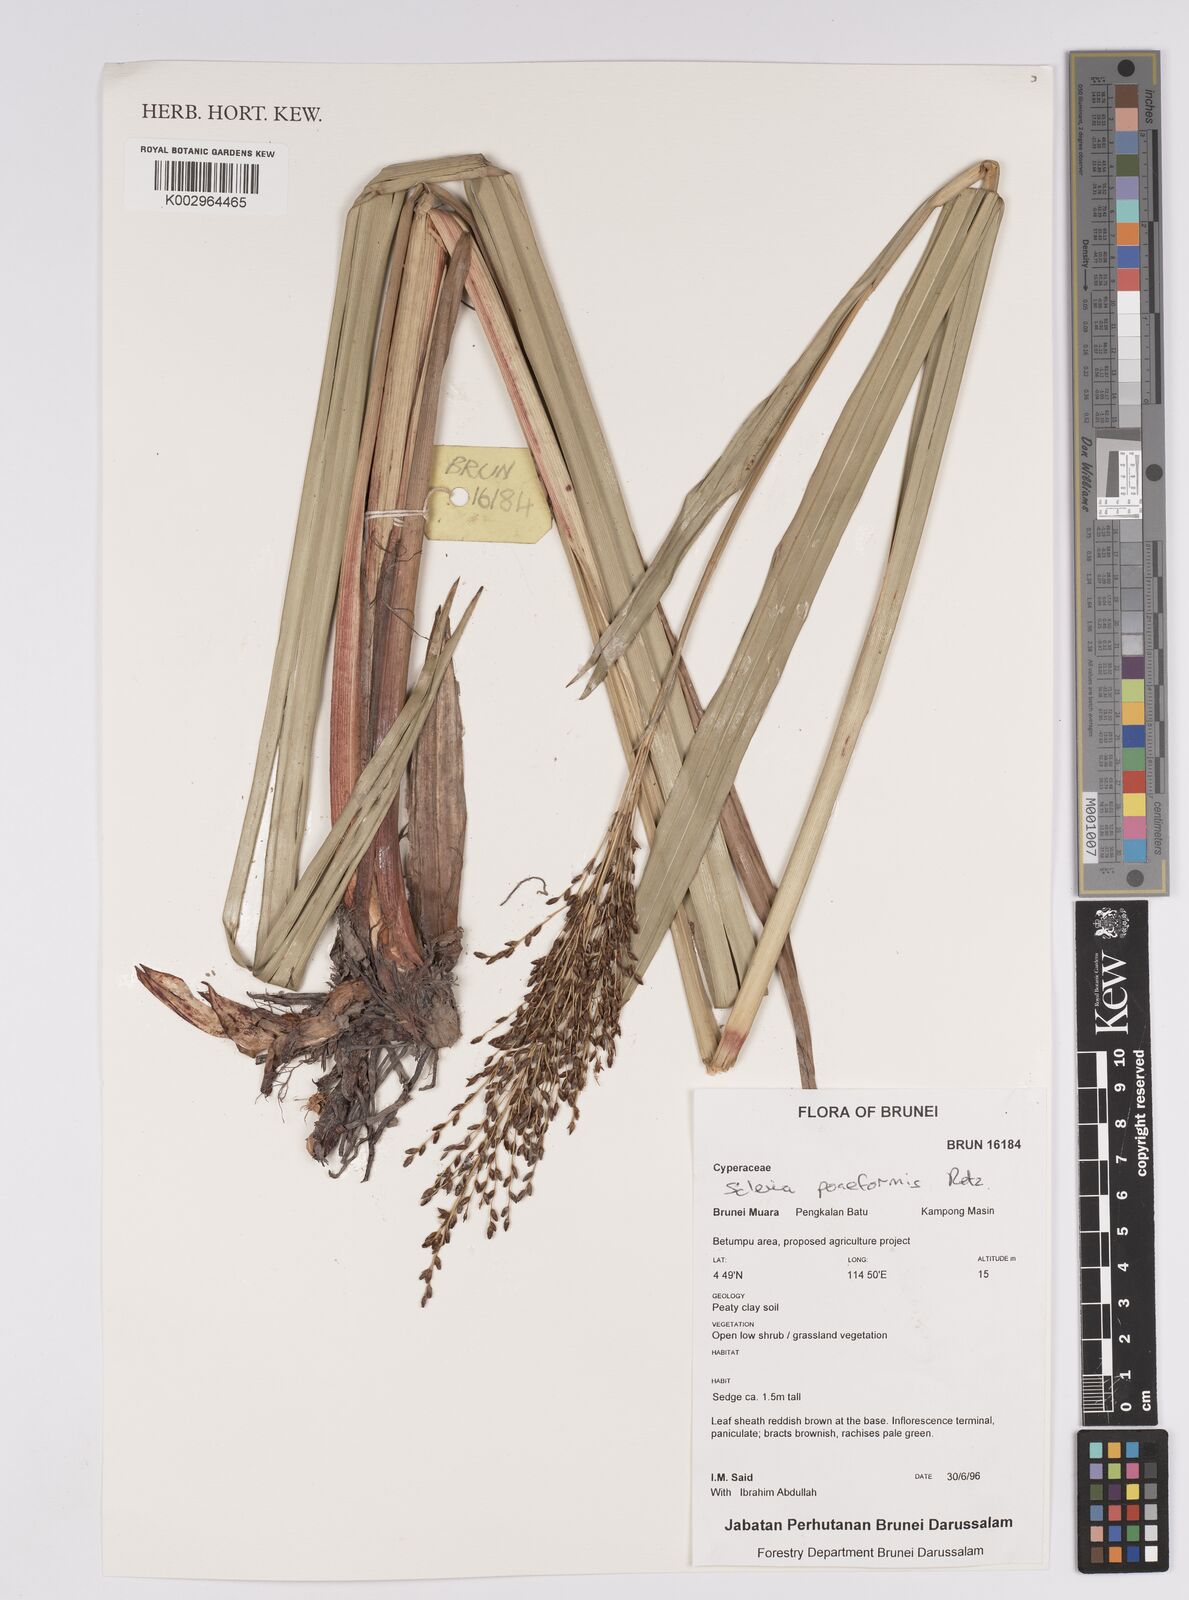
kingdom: Plantae
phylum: Tracheophyta
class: Liliopsida
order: Poales
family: Cyperaceae
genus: Scleria
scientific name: Scleria poiformis
